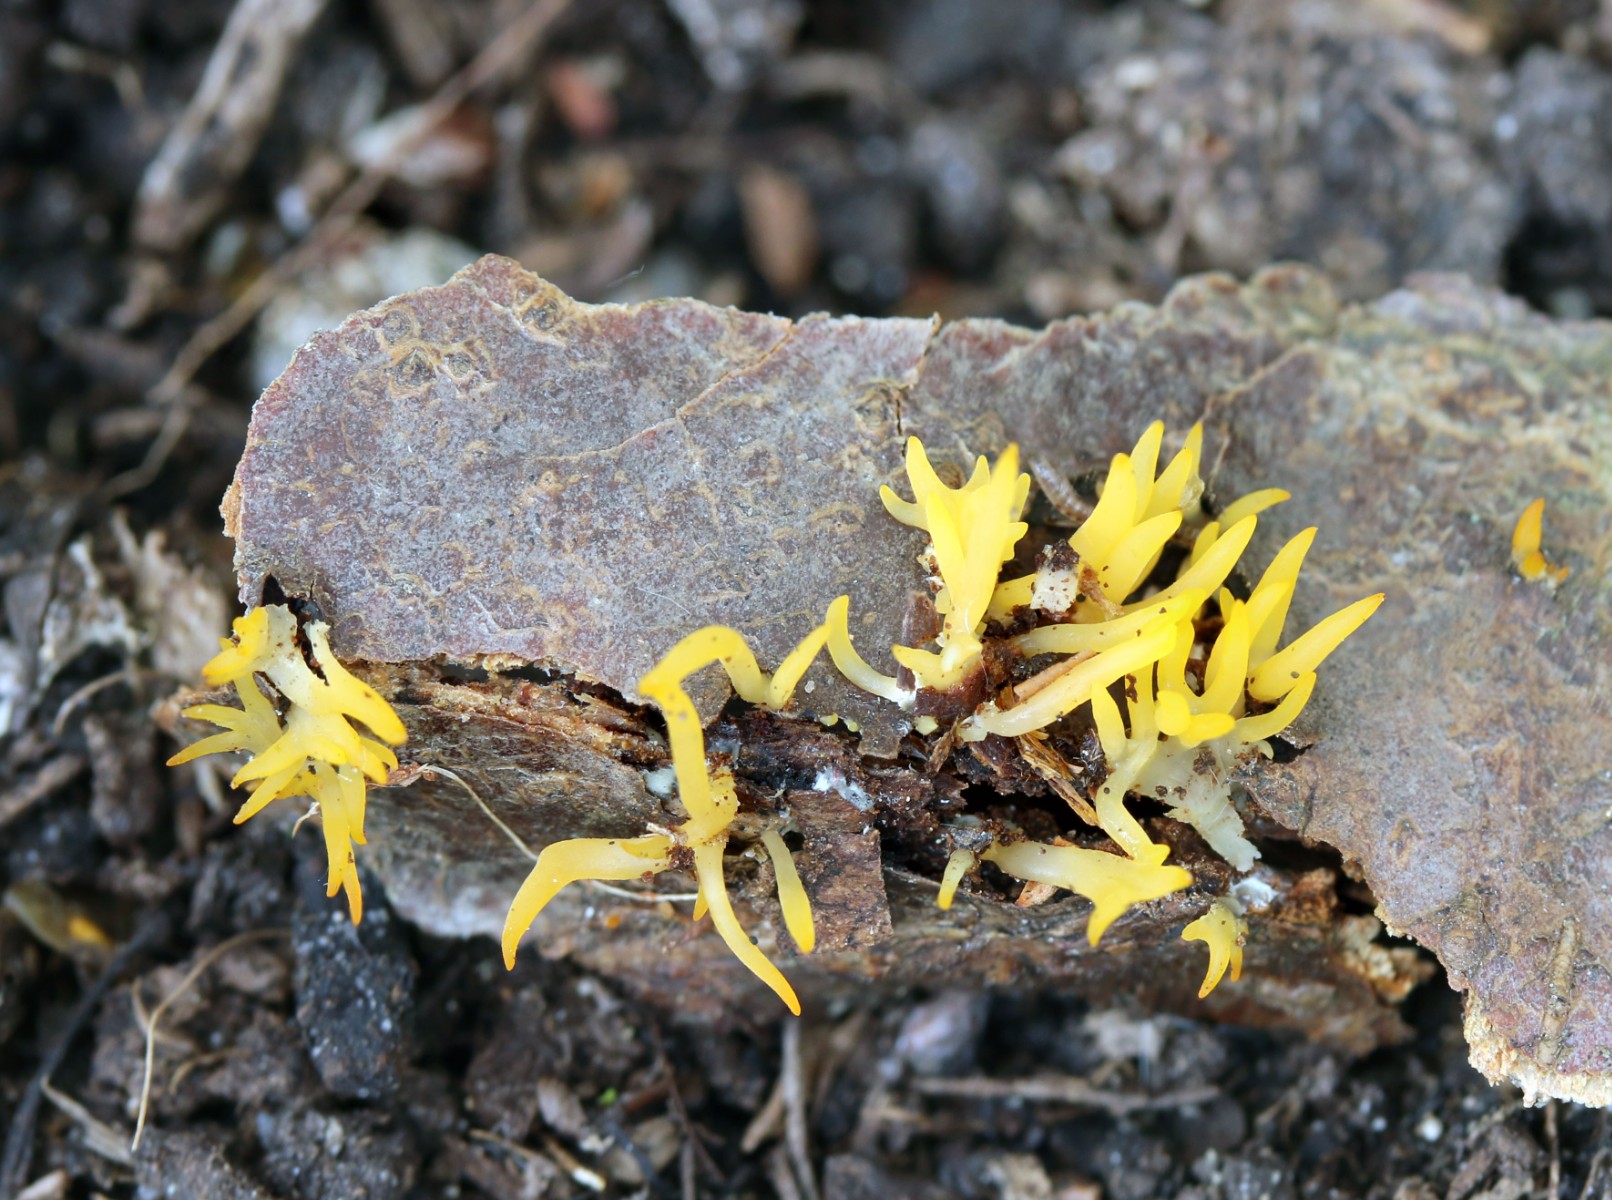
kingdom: Fungi
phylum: Basidiomycota
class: Dacrymycetes
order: Dacrymycetales
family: Dacrymycetaceae
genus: Calocera
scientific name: Calocera cornea
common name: liden guldgaffel
